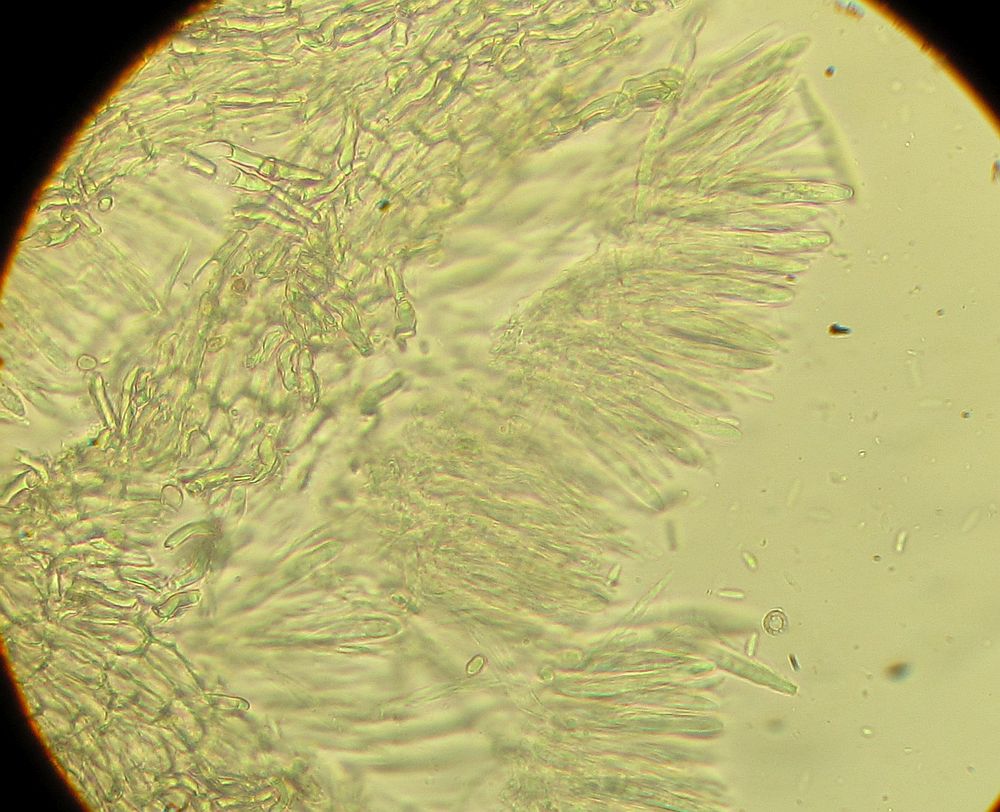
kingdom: Fungi
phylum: Ascomycota
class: Leotiomycetes
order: Helotiales
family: Hyaloscyphaceae
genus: Hyalopeziza
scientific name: Hyalopeziza millepunctata
